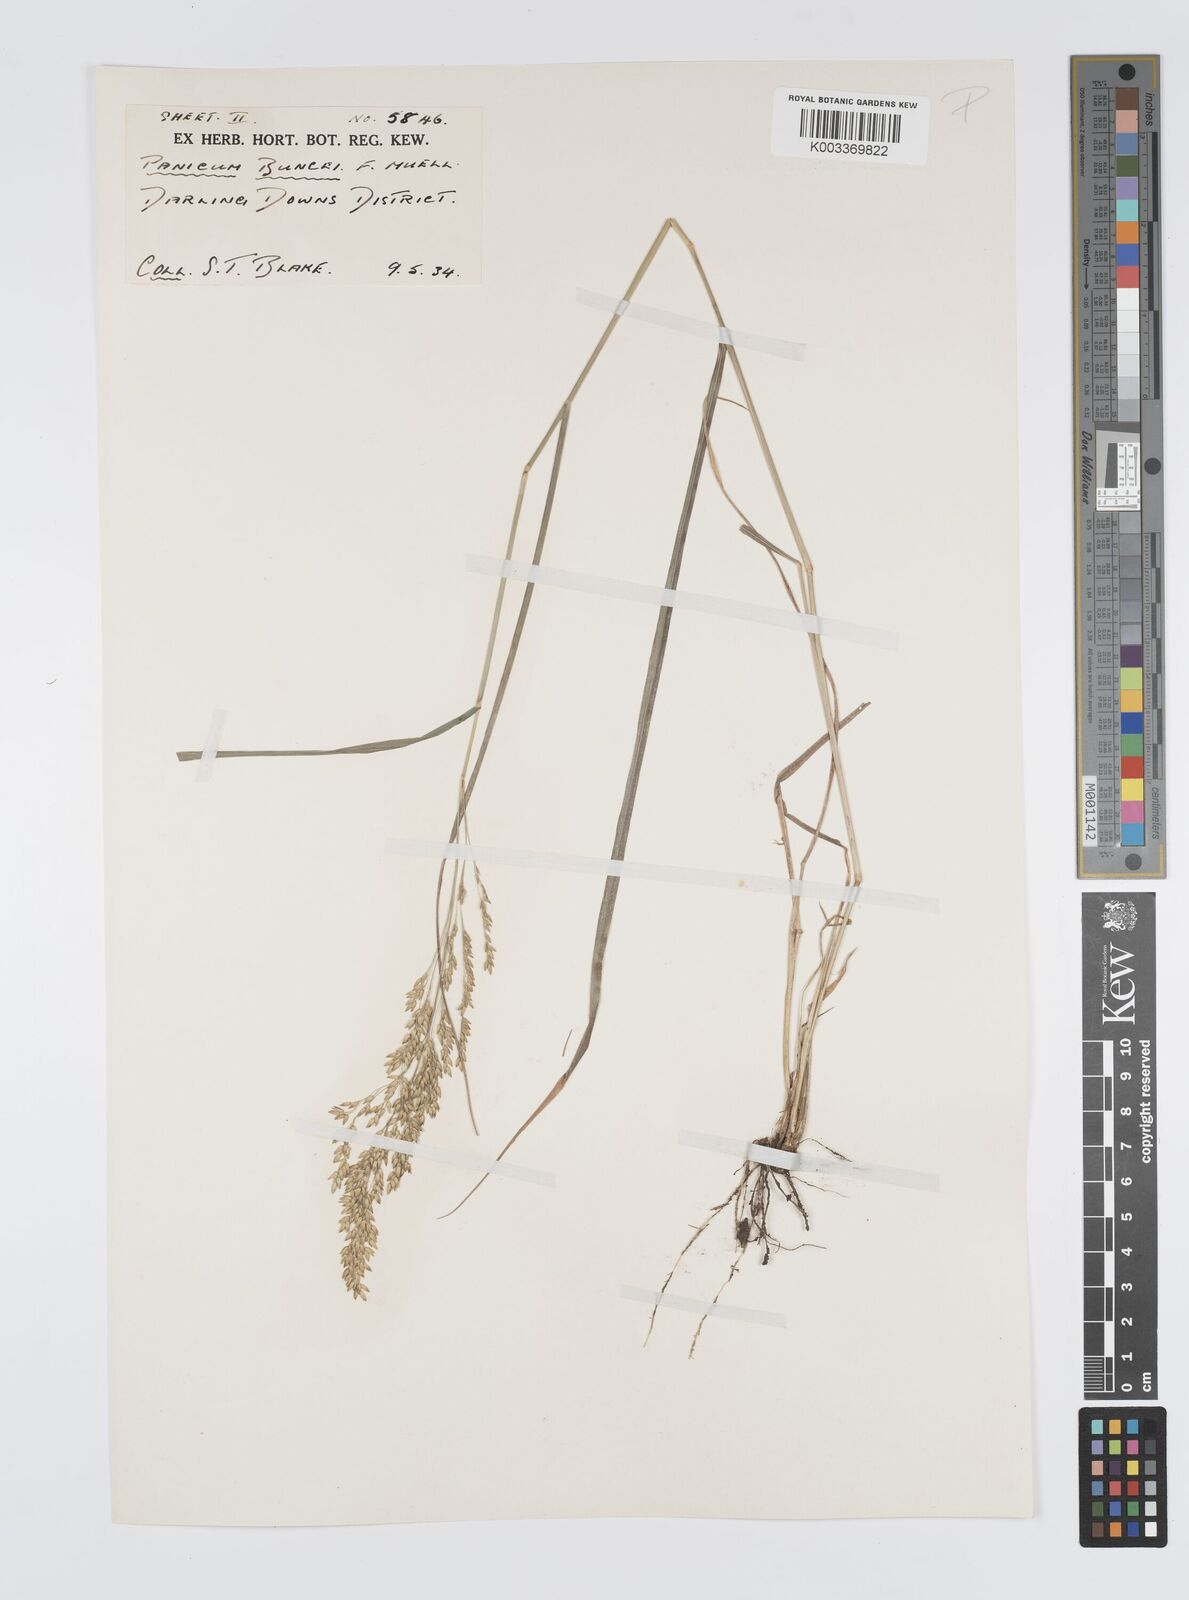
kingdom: Plantae
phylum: Tracheophyta
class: Liliopsida
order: Poales
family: Poaceae
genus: Panicum
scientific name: Panicum buncei
